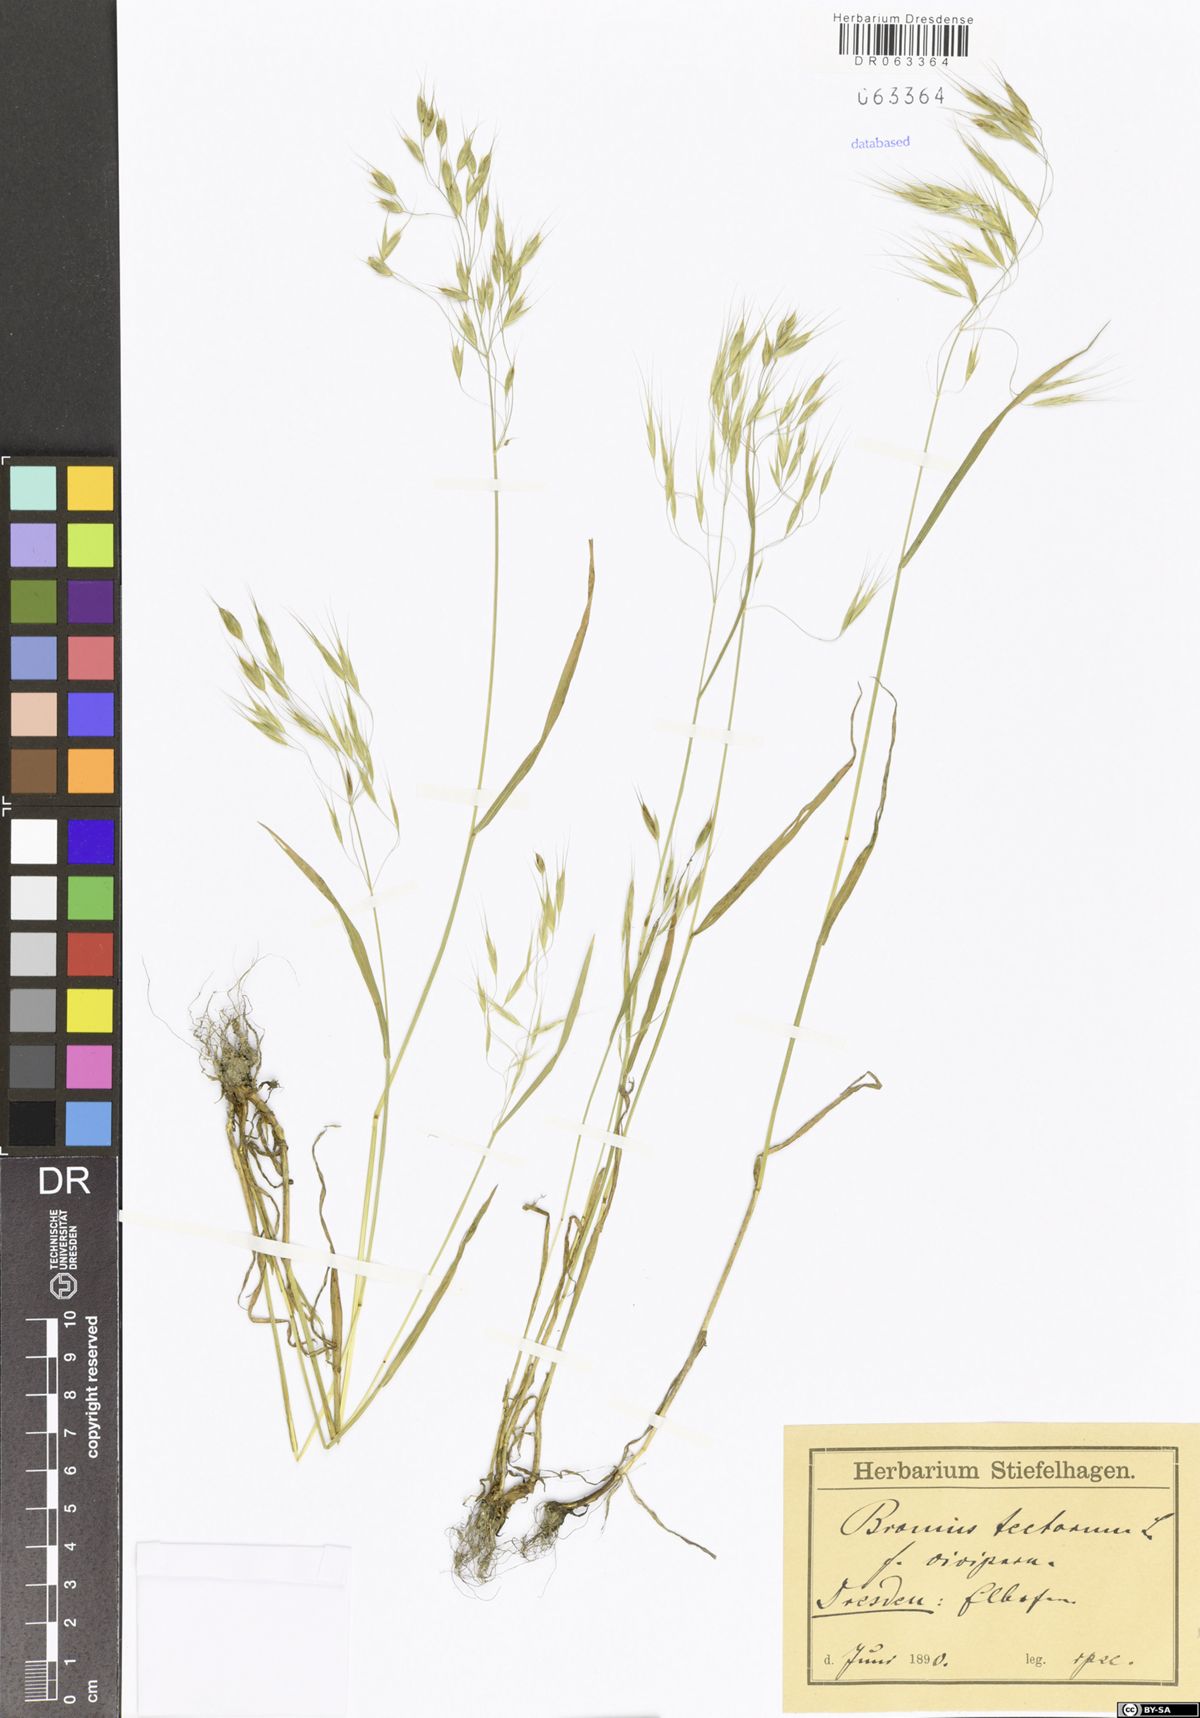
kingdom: Plantae
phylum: Tracheophyta
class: Liliopsida
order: Poales
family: Poaceae
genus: Bromus
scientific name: Bromus tectorum
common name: Cheatgrass
